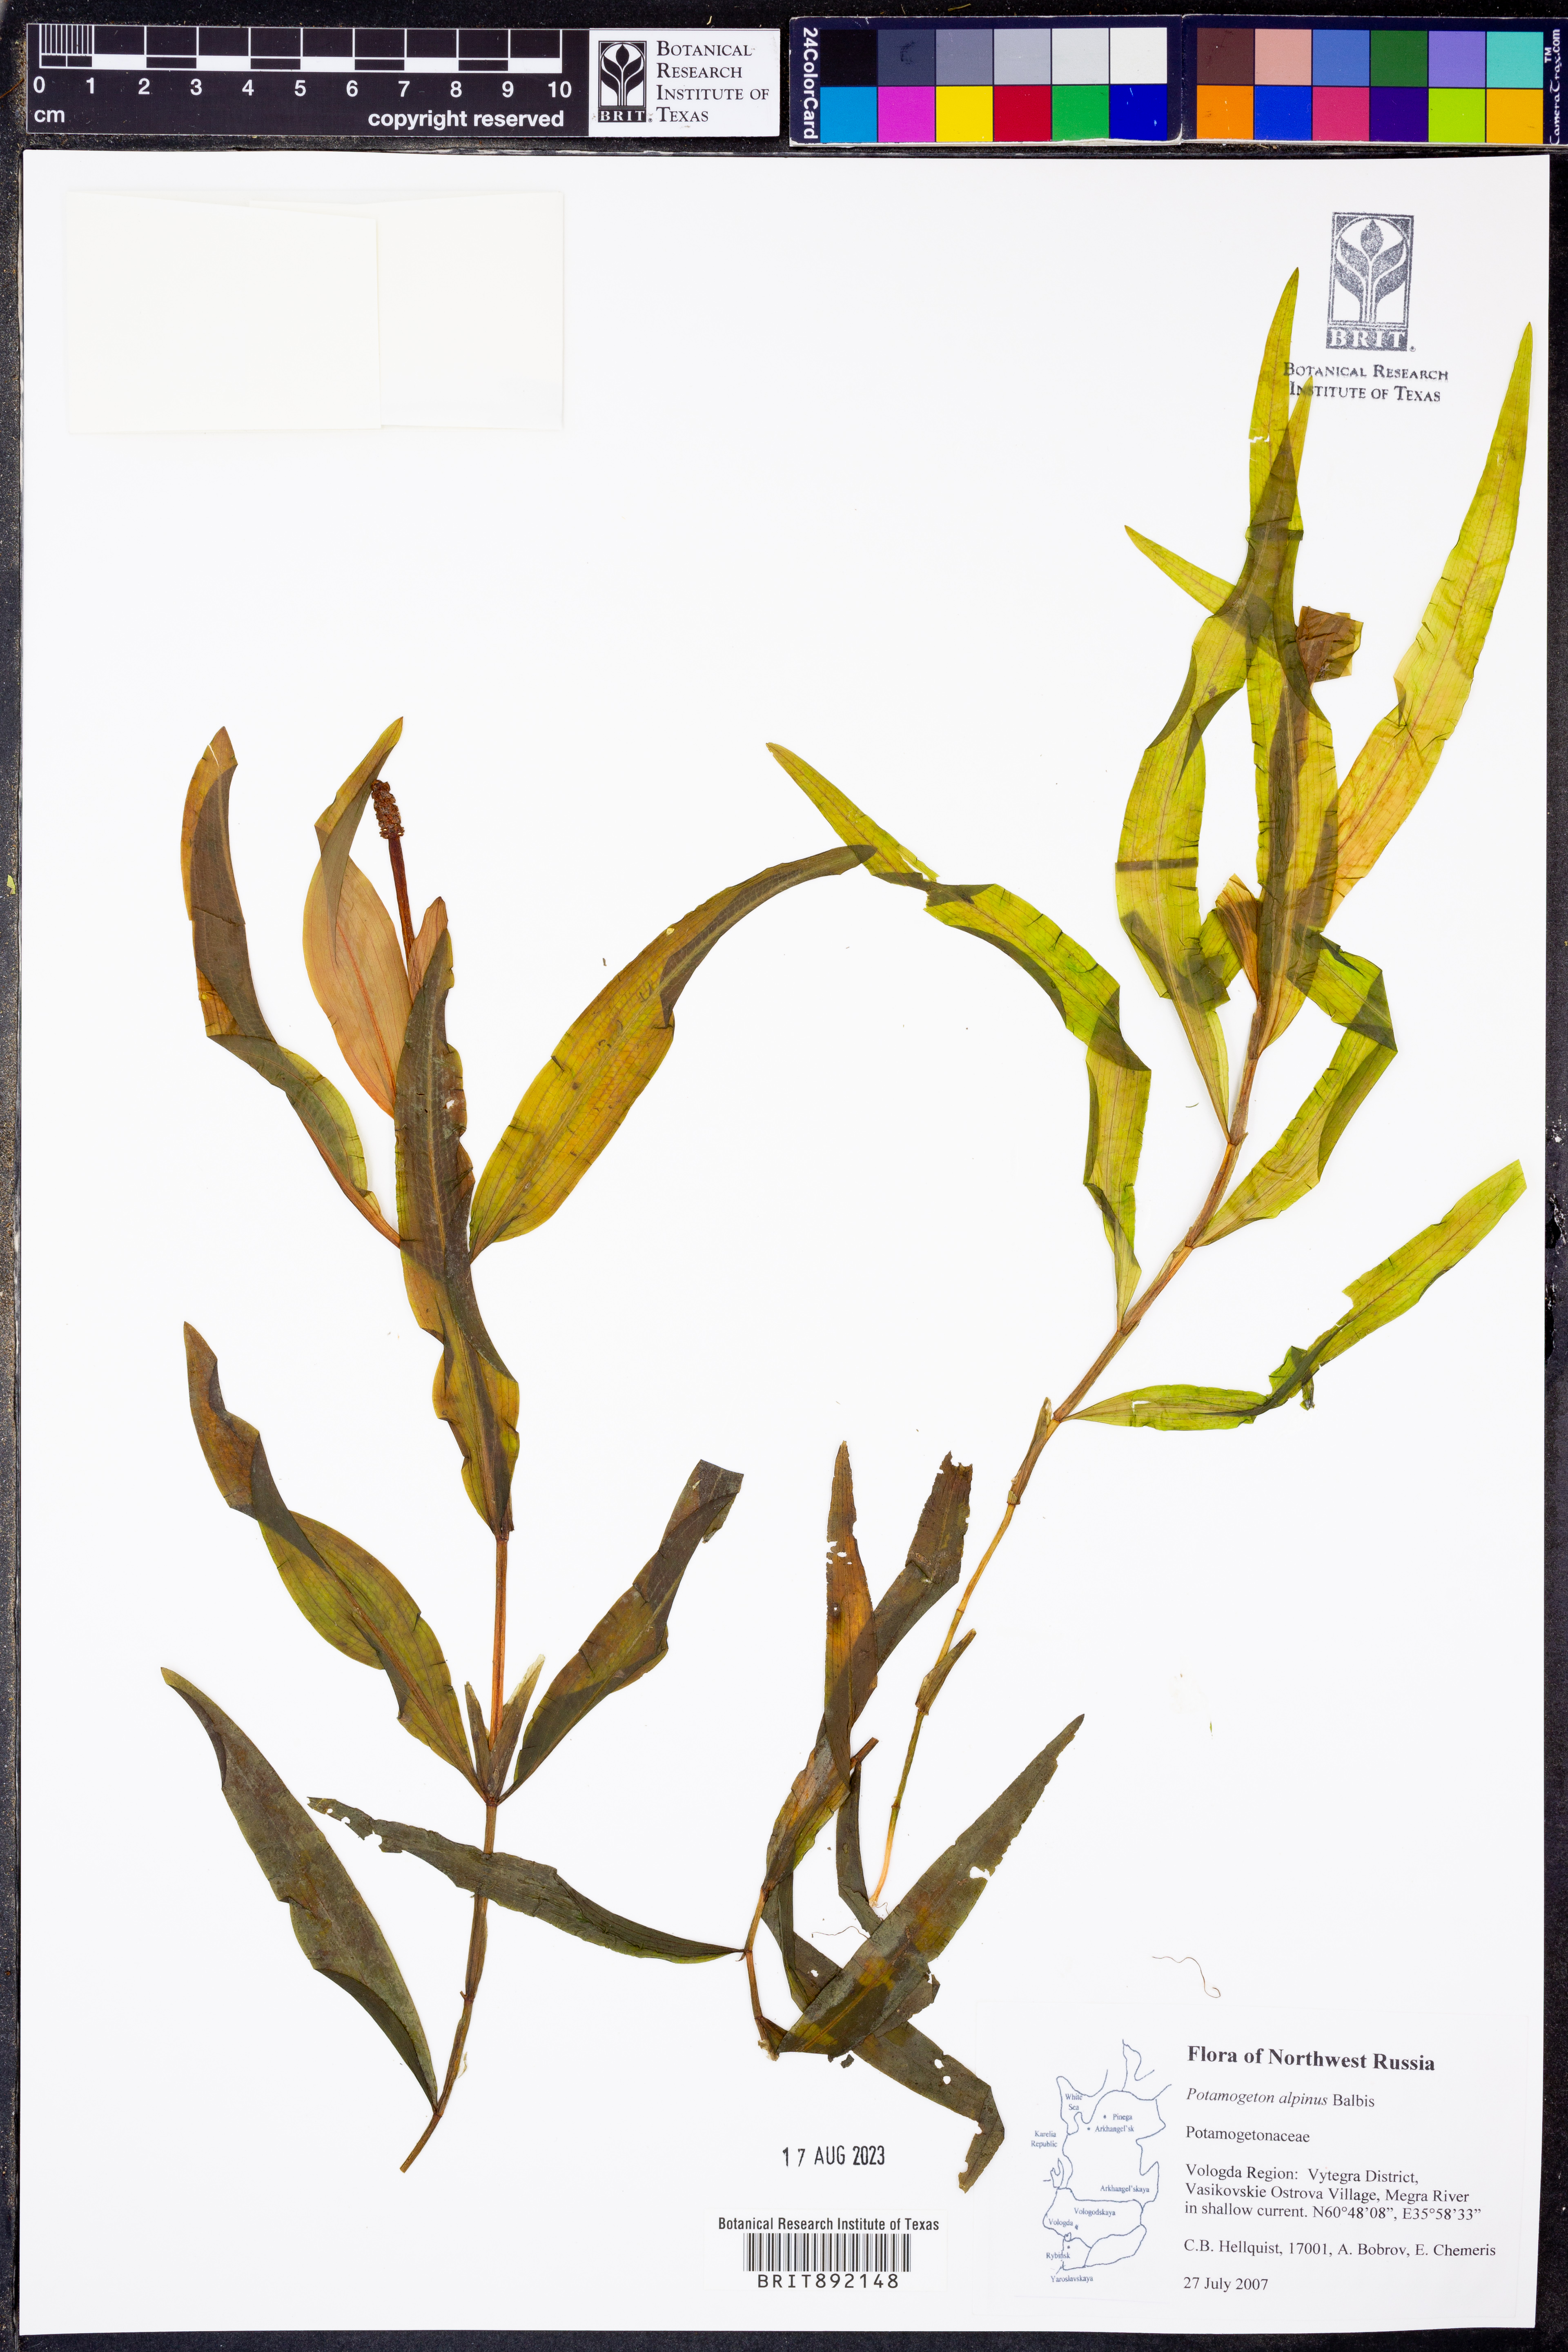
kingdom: Plantae
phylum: Tracheophyta
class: Liliopsida
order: Alismatales
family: Potamogetonaceae
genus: Potamogeton
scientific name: Potamogeton alpinus
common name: Red pondweed
